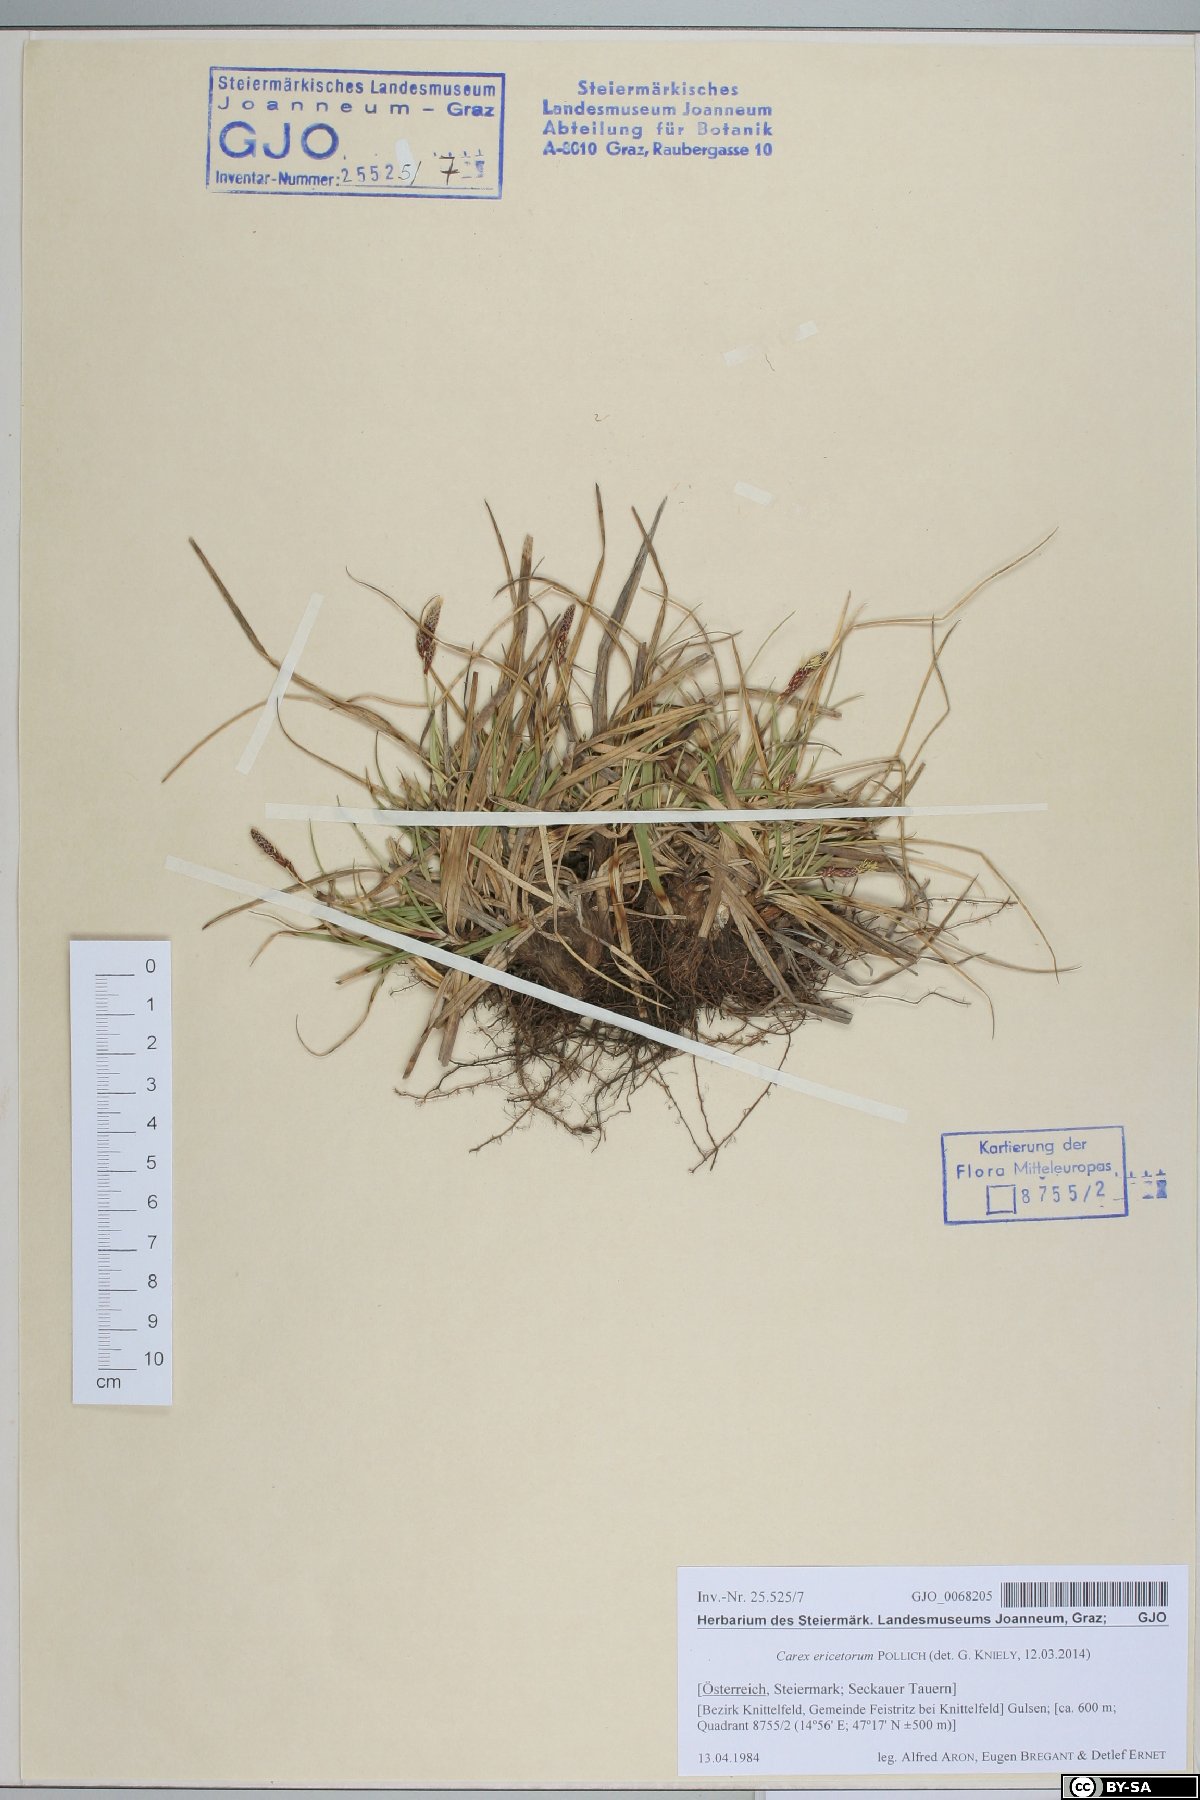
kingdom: Plantae
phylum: Tracheophyta
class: Liliopsida
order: Poales
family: Cyperaceae
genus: Carex
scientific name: Carex ericetorum
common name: Rare spring-sedge
